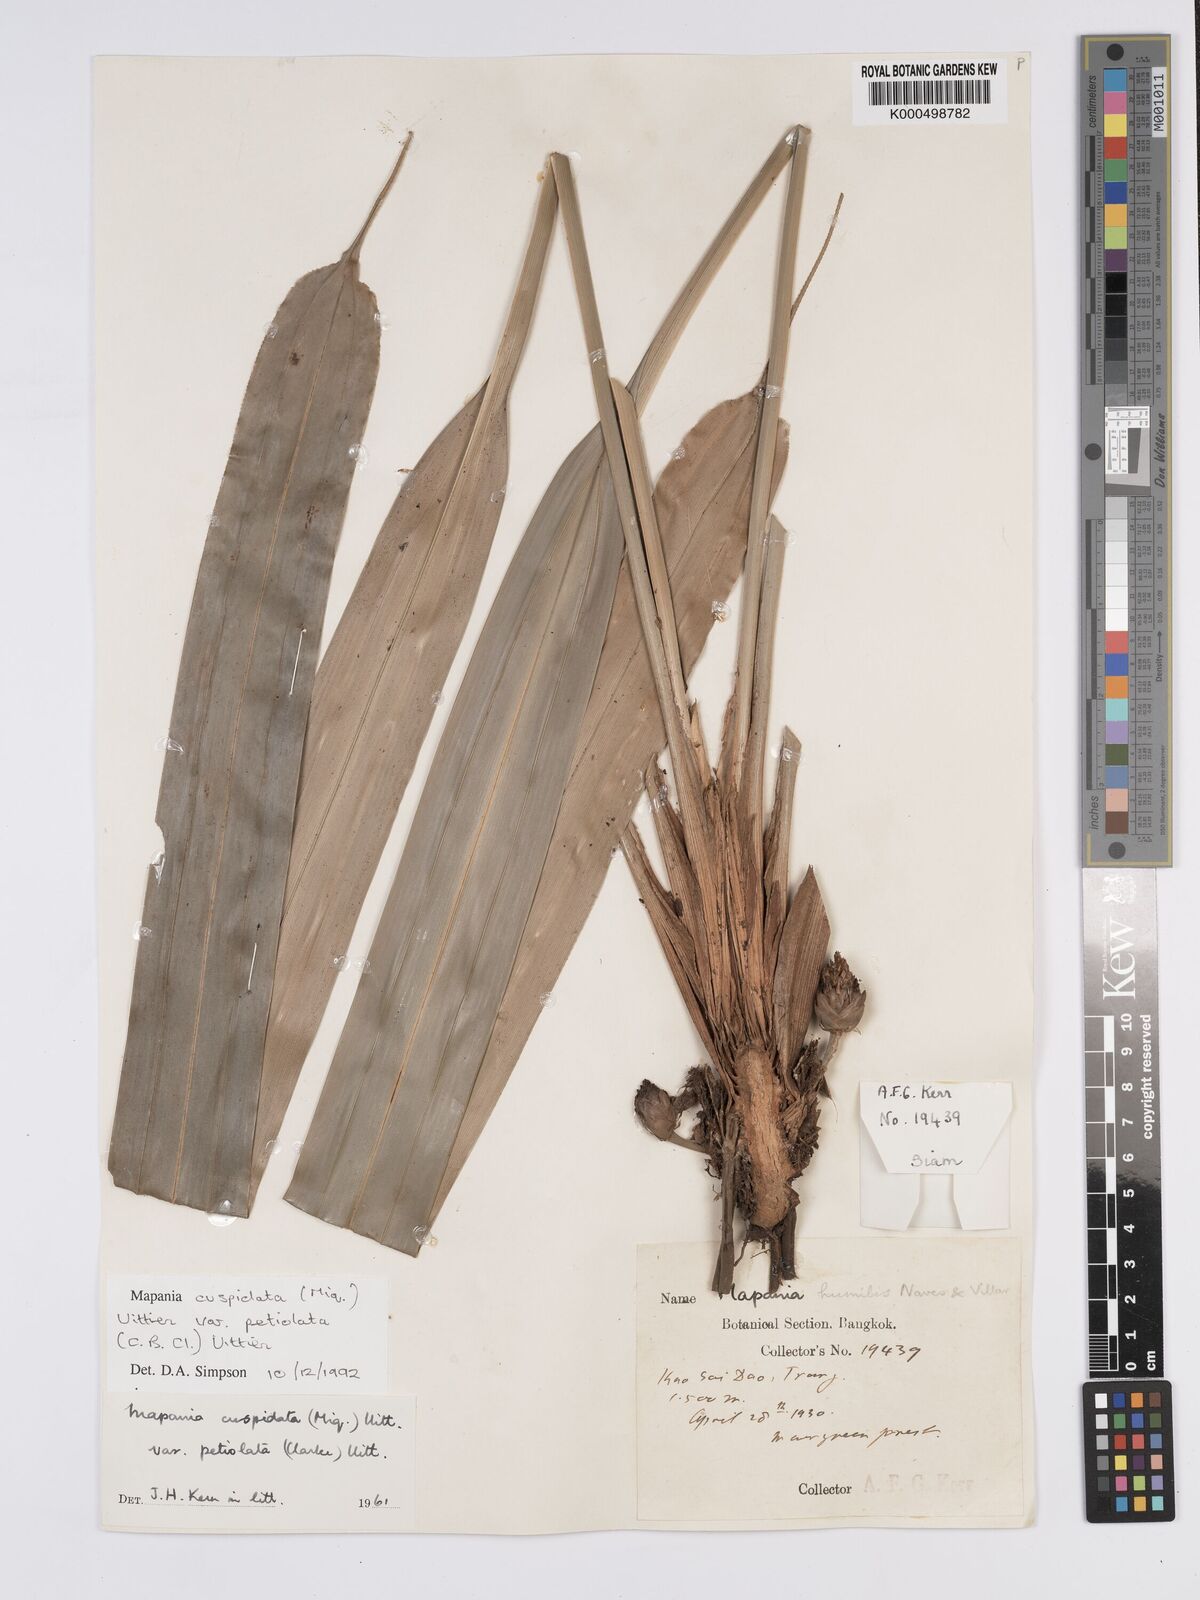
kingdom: Plantae
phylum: Tracheophyta
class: Liliopsida
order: Poales
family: Cyperaceae
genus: Mapania
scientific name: Mapania cuspidata
